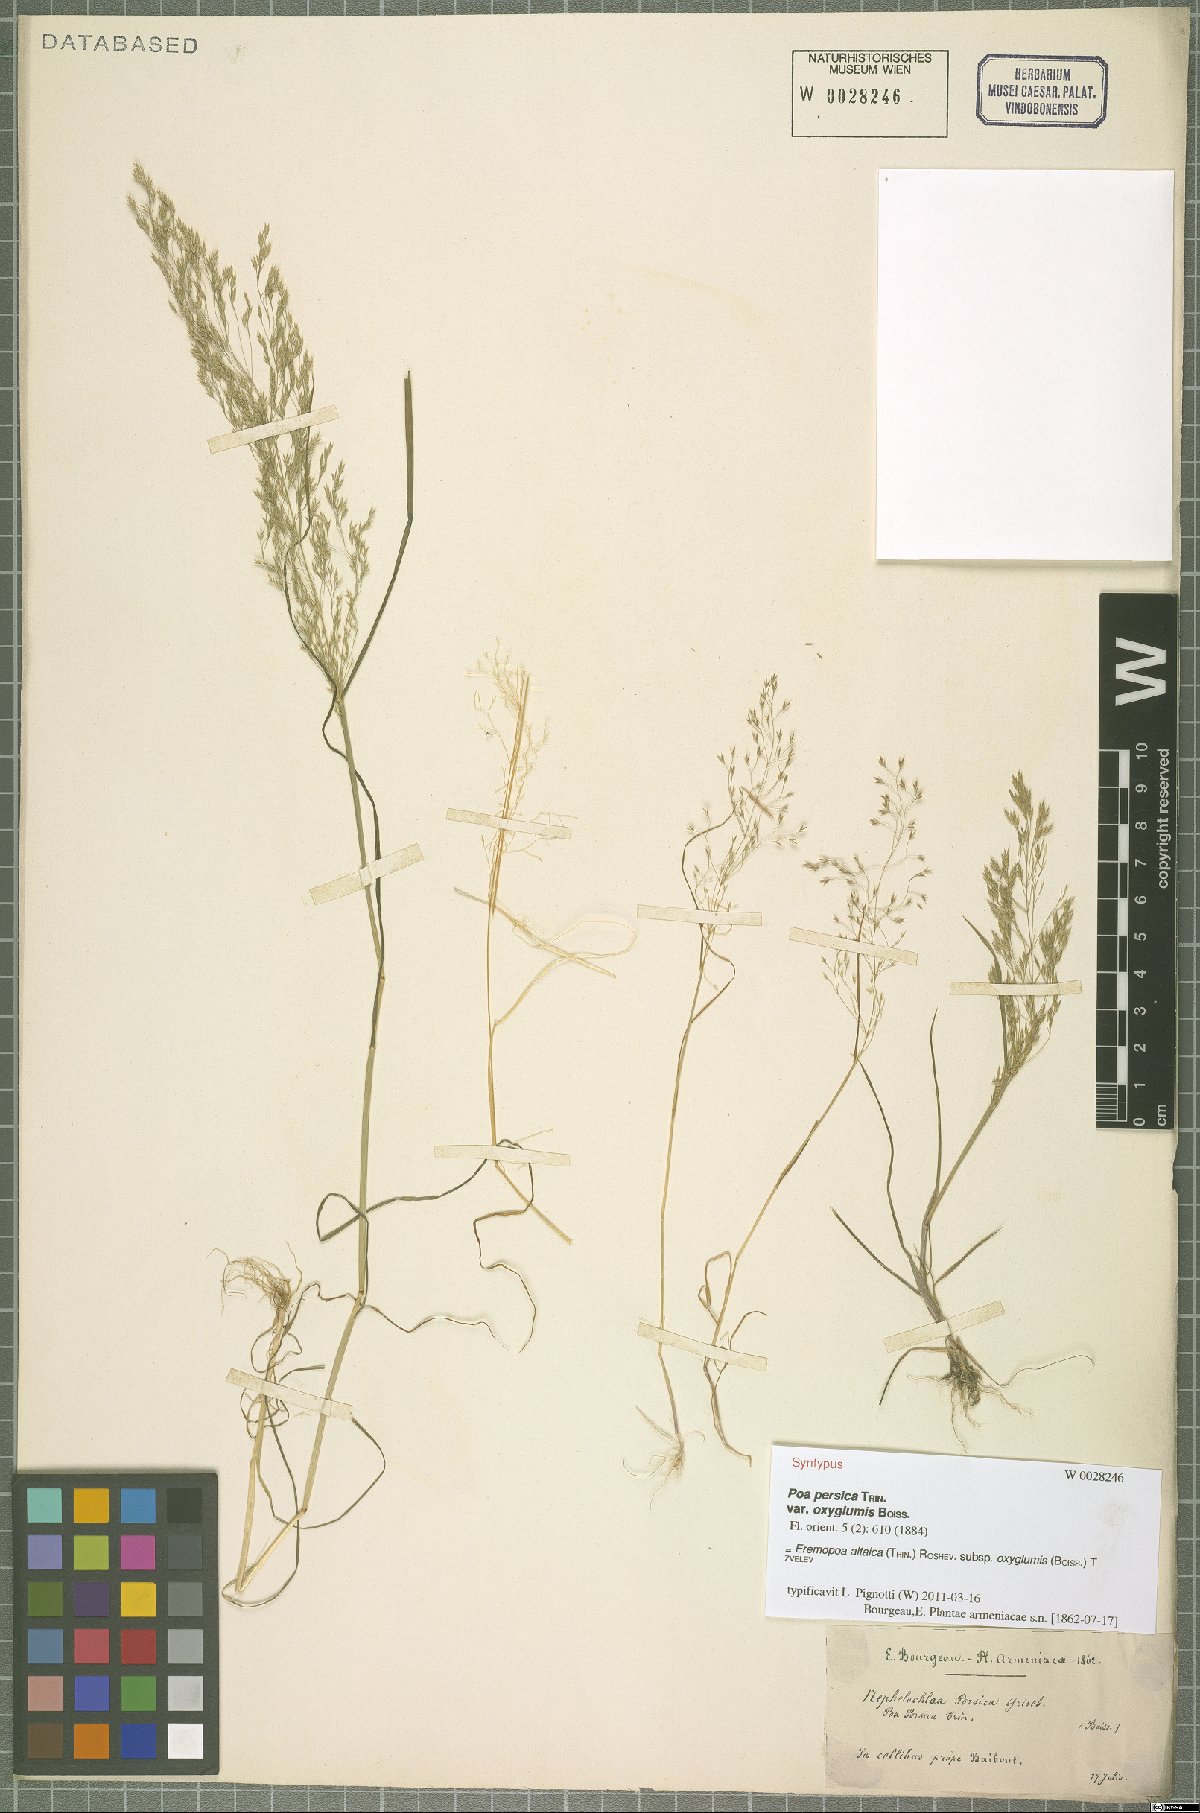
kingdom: Plantae
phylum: Tracheophyta
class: Liliopsida
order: Poales
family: Poaceae
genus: Poa
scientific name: Poa diaphora
